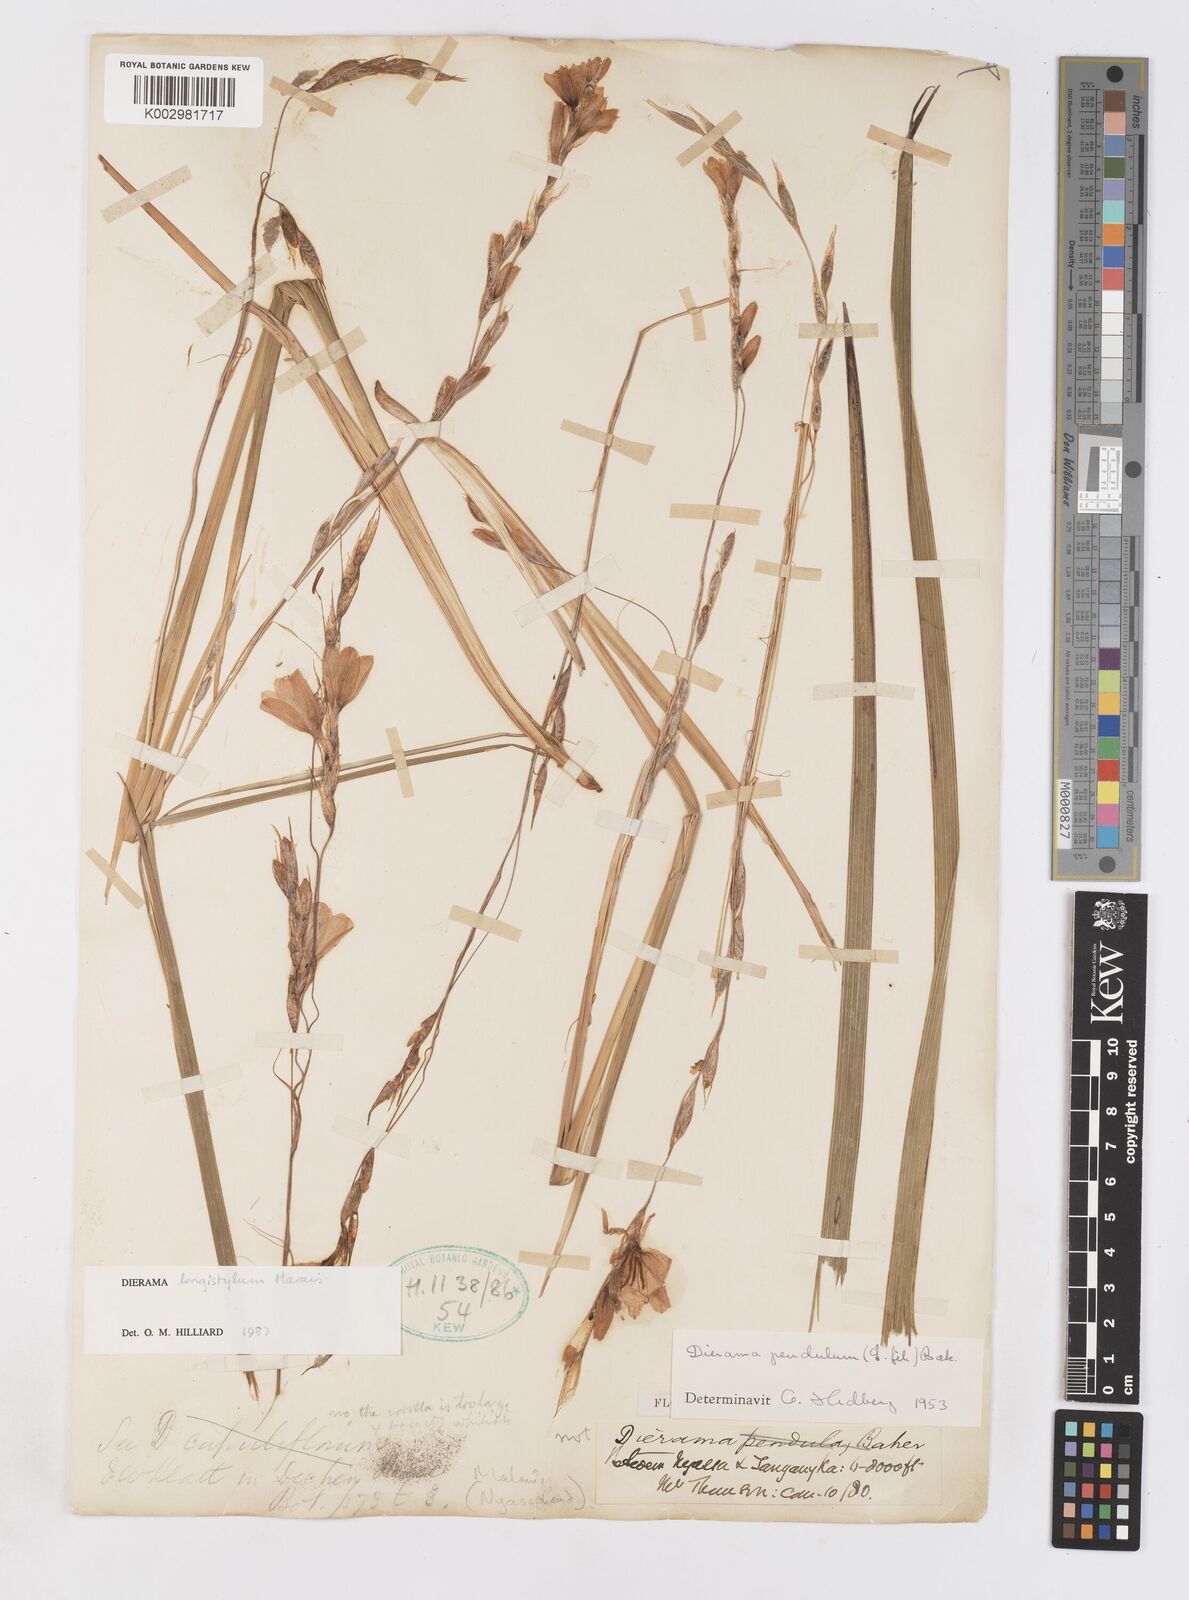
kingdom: Plantae
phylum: Tracheophyta
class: Liliopsida
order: Asparagales
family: Iridaceae
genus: Dierama
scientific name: Dierama longistylum
